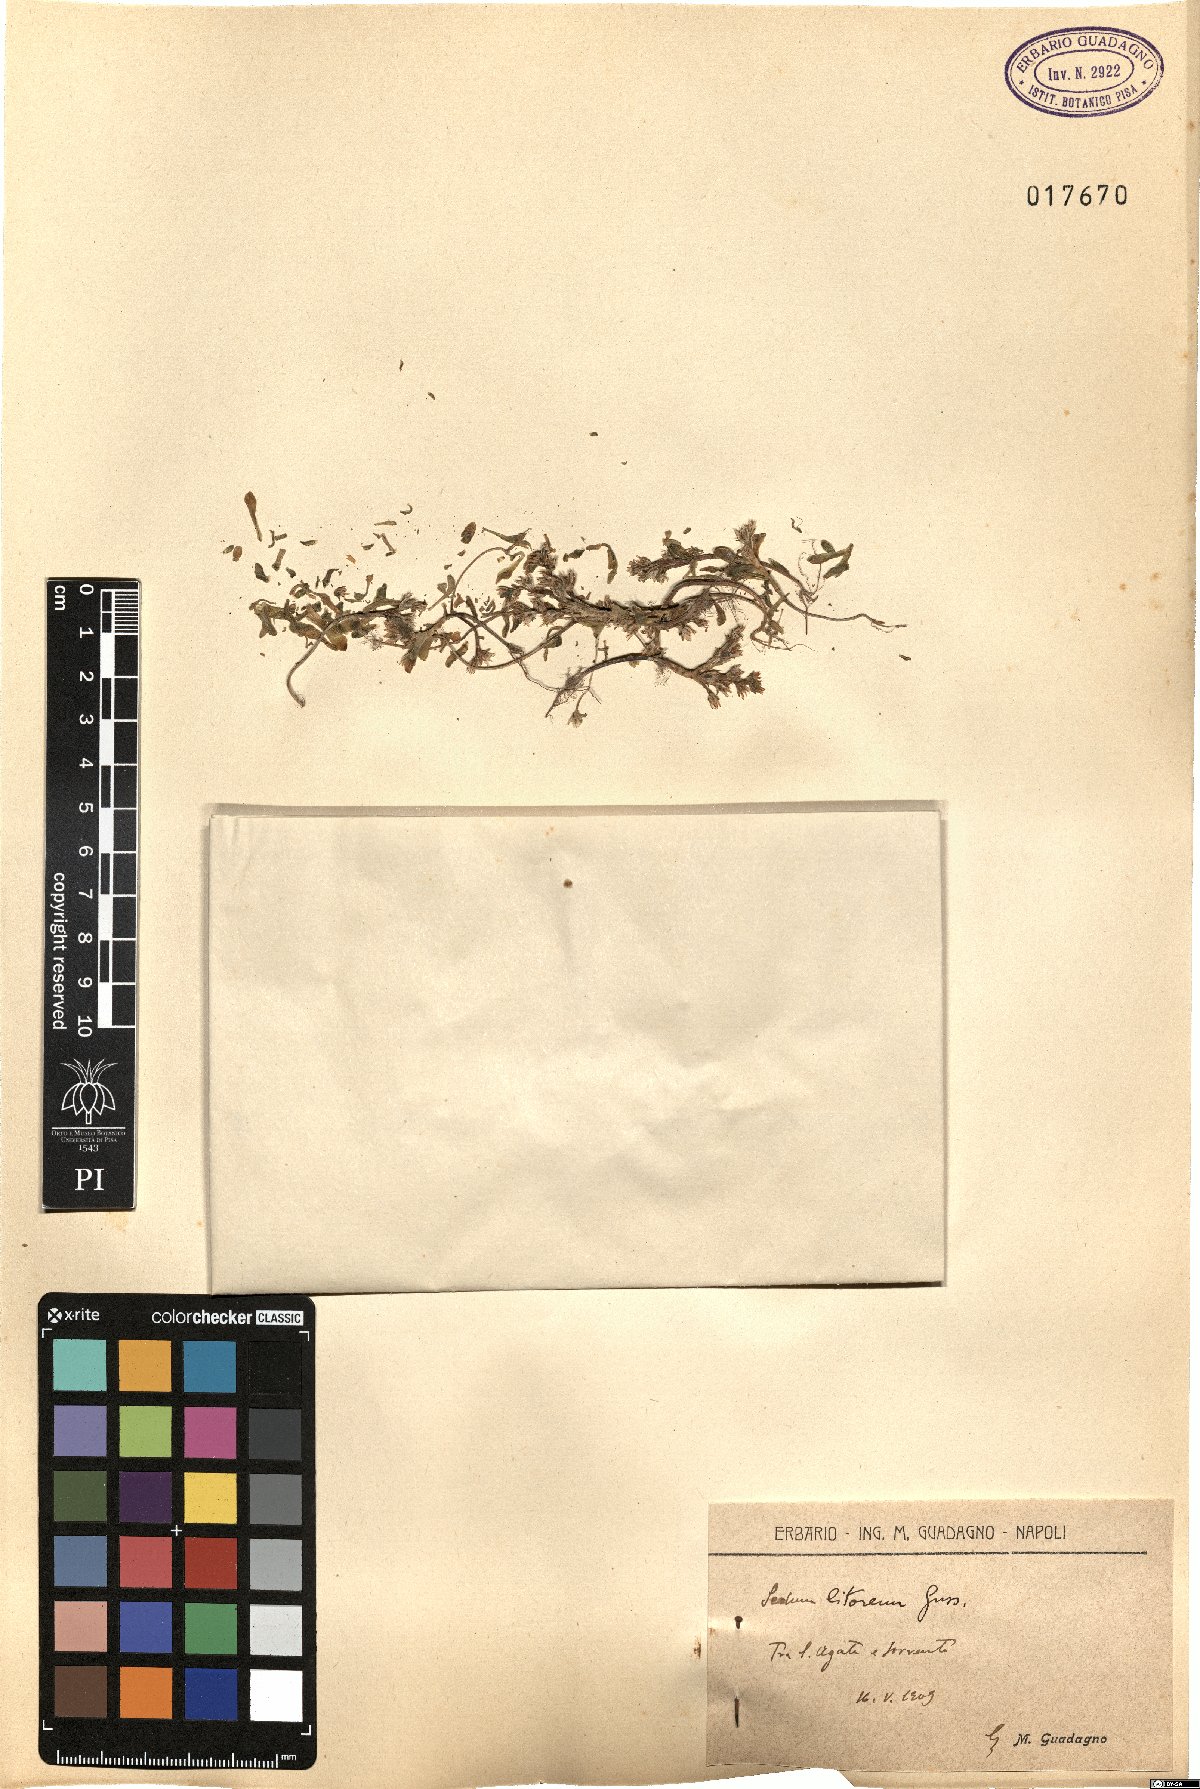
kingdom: Plantae
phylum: Tracheophyta
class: Magnoliopsida
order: Saxifragales
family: Crassulaceae
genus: Sedum
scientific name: Sedum litoreum
